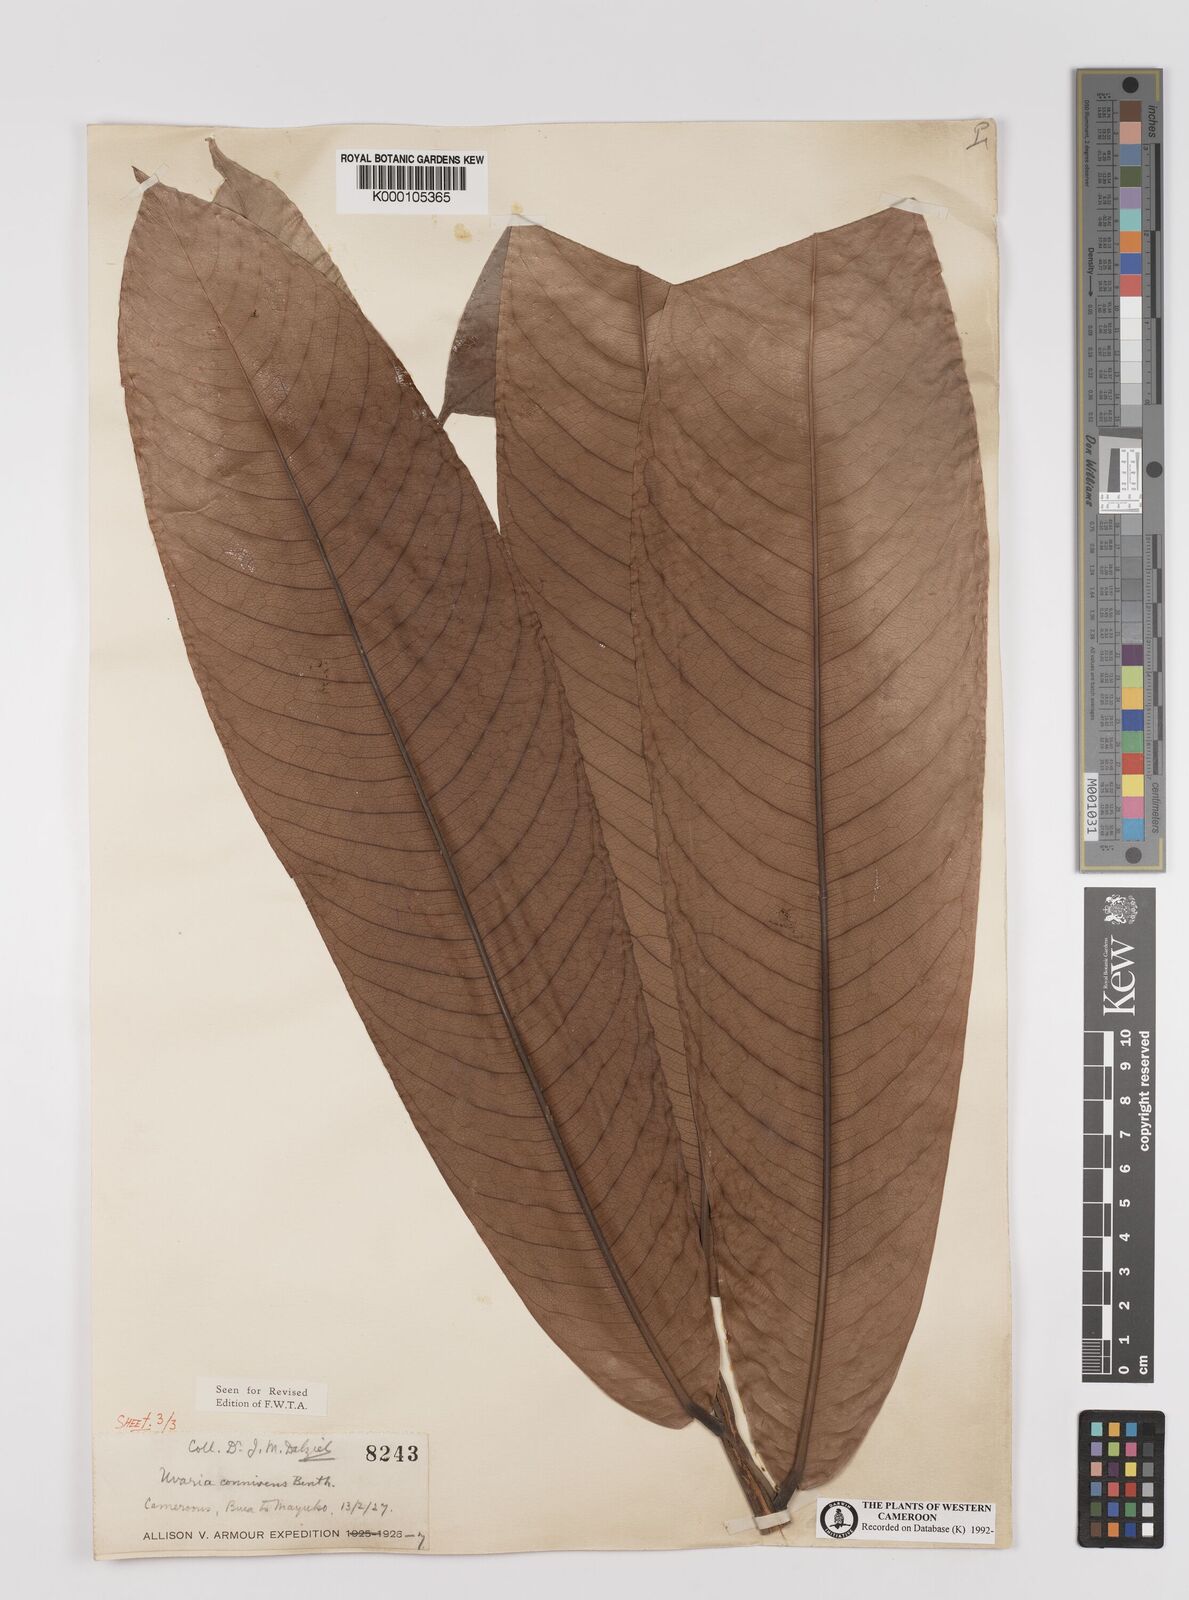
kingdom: Plantae
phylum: Tracheophyta
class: Magnoliopsida
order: Magnoliales
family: Annonaceae
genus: Uvariodendron
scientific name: Uvariodendron connivens
